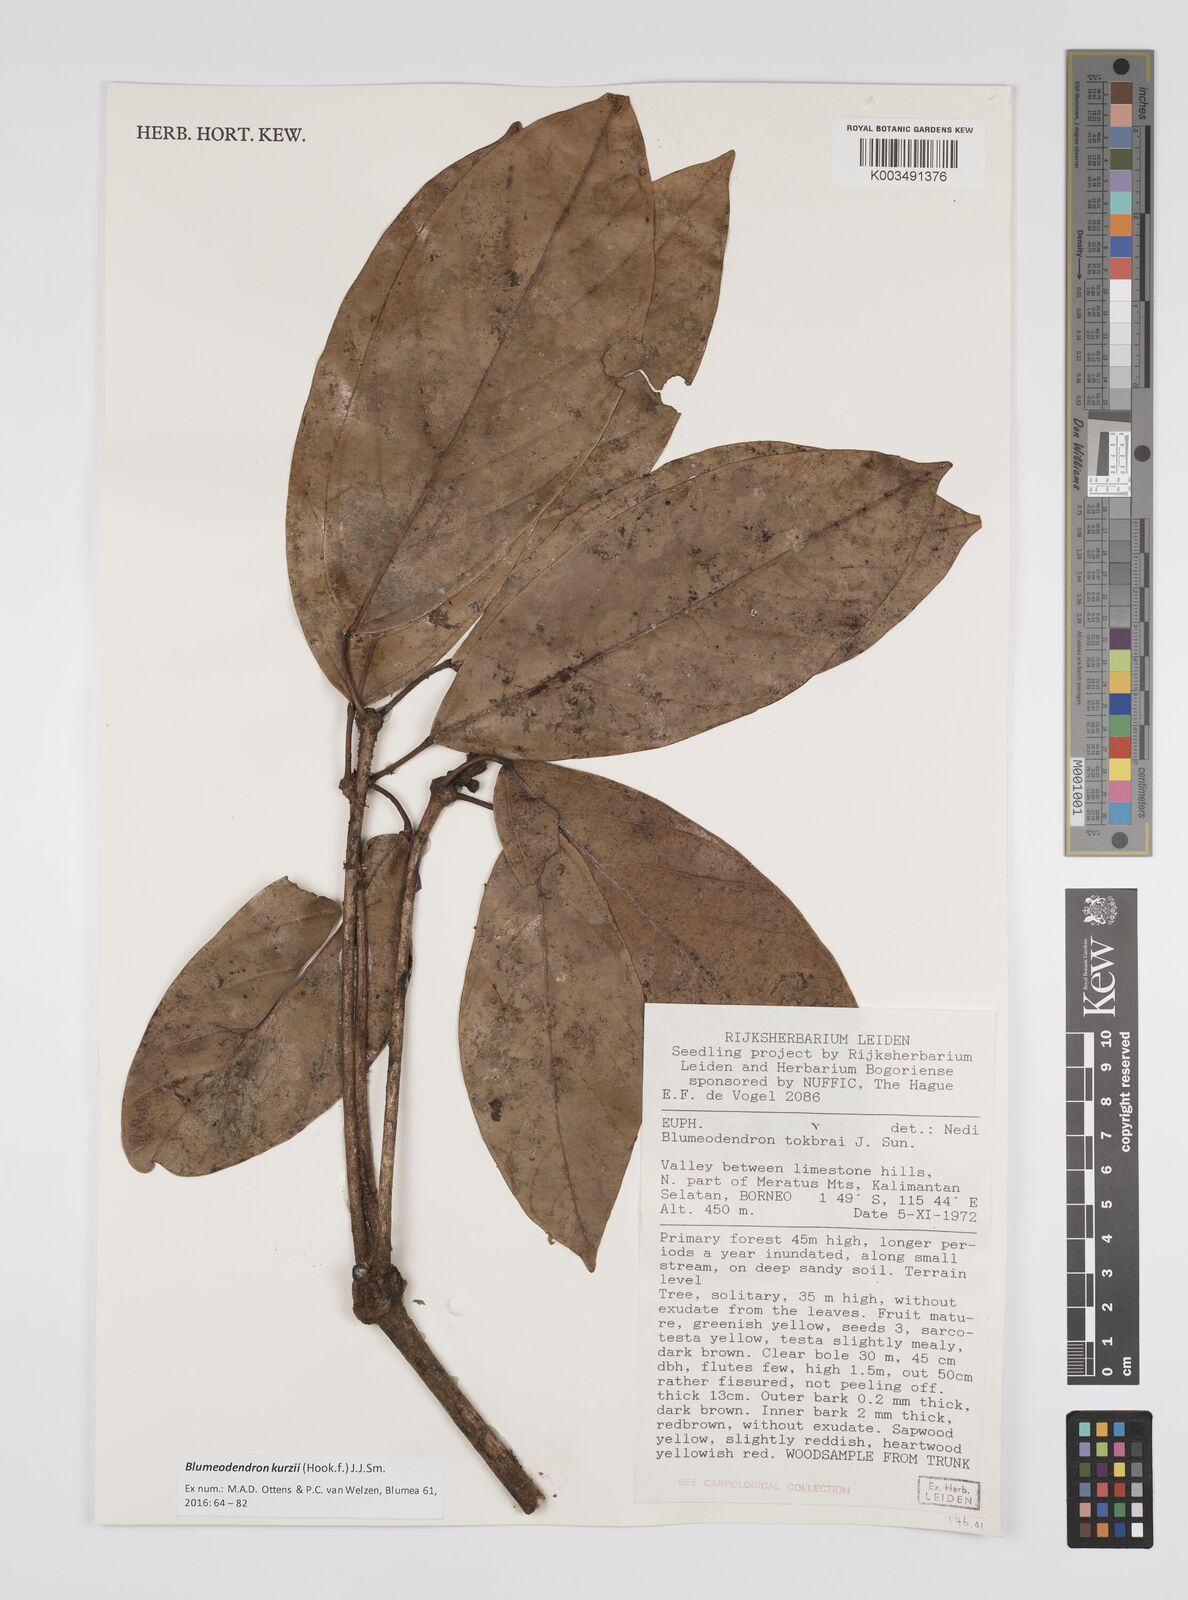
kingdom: Plantae
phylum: Tracheophyta
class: Magnoliopsida
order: Malpighiales
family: Euphorbiaceae
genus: Blumeodendron
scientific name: Blumeodendron kurzii
